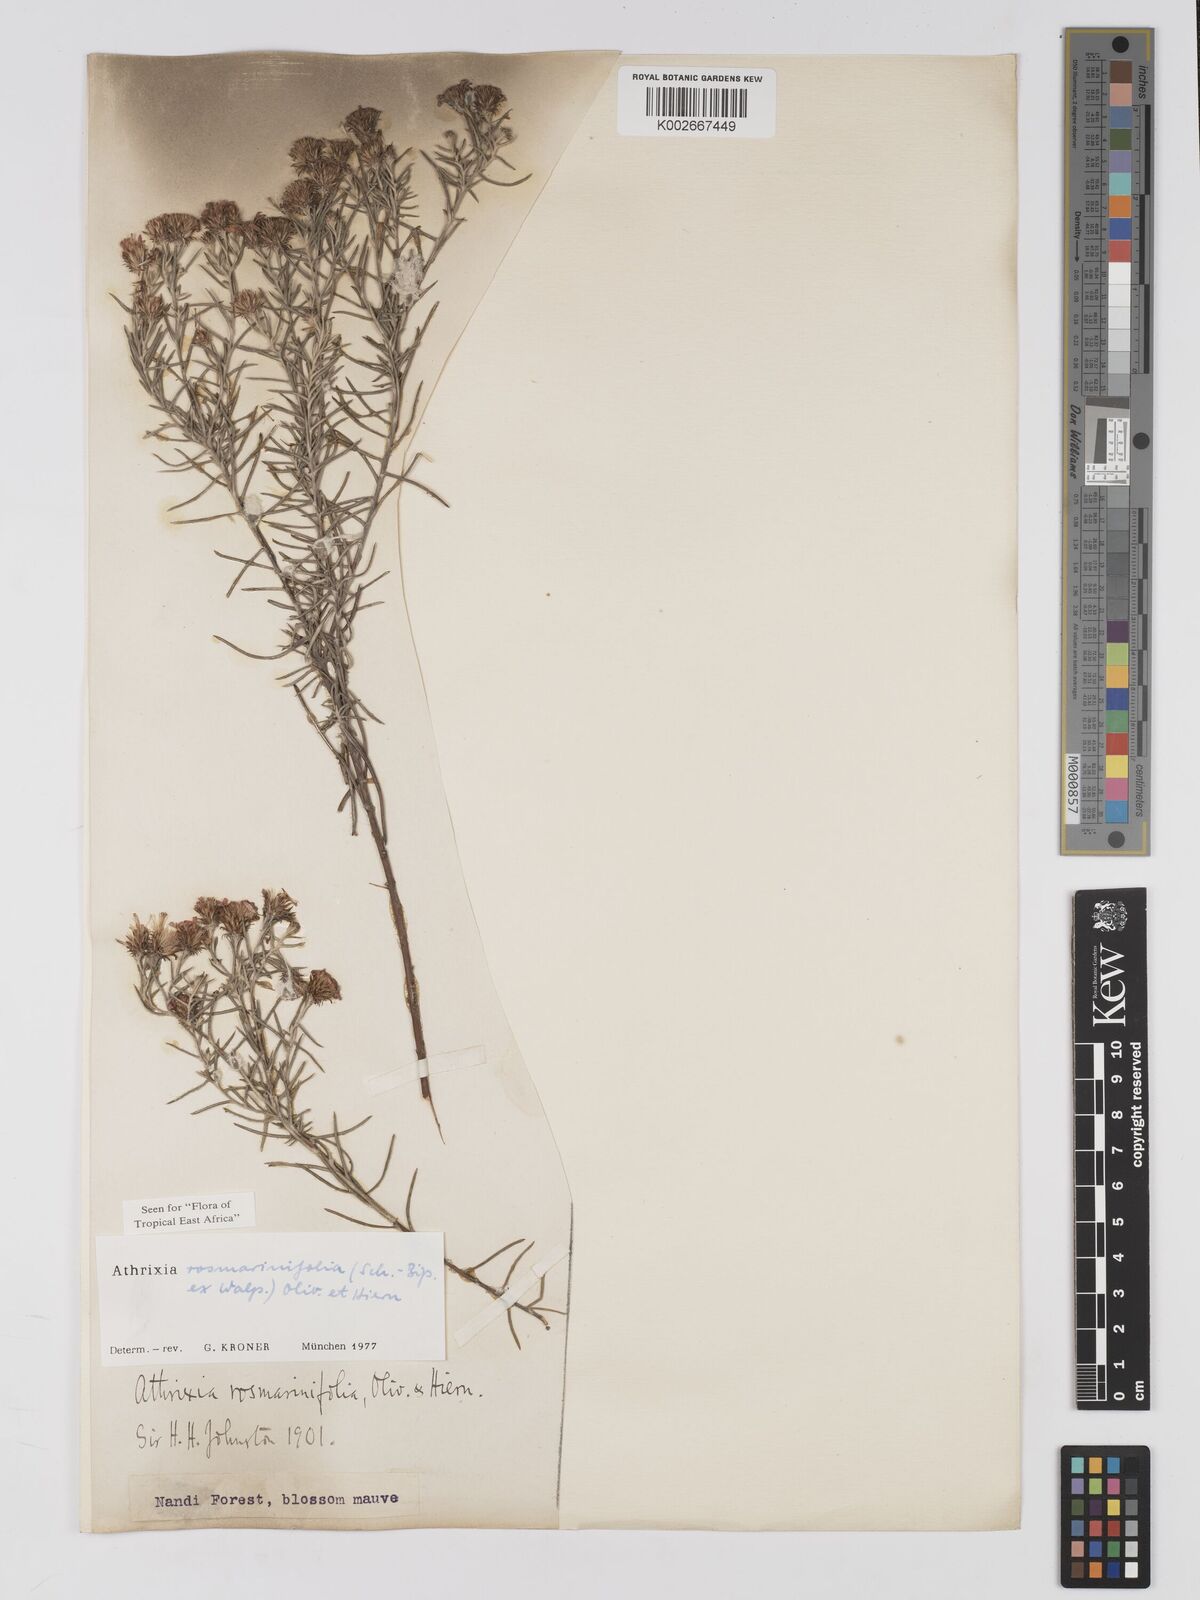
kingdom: Plantae
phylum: Tracheophyta
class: Magnoliopsida
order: Asterales
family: Asteraceae
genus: Athrixia
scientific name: Athrixia rosmarinifolia
